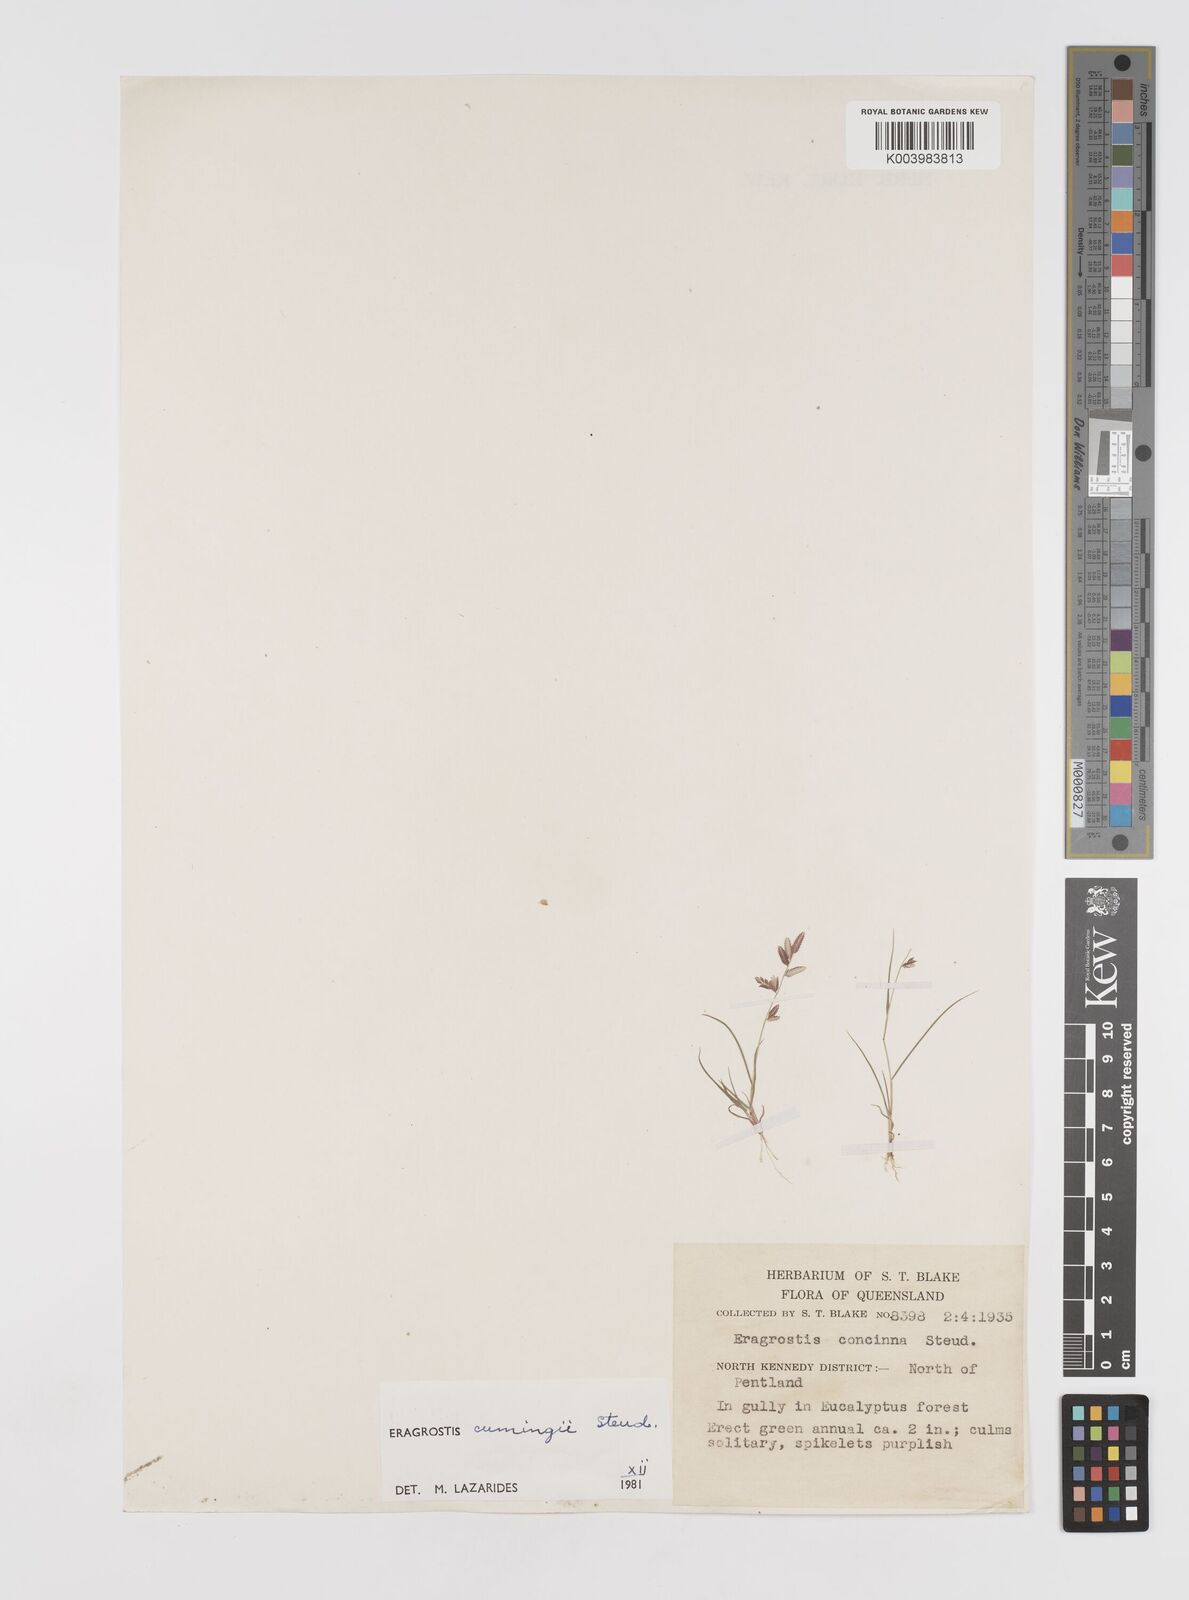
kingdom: Plantae
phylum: Tracheophyta
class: Liliopsida
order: Poales
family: Poaceae
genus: Eragrostis
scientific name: Eragrostis cumingii
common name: Cuming's lovegrass
